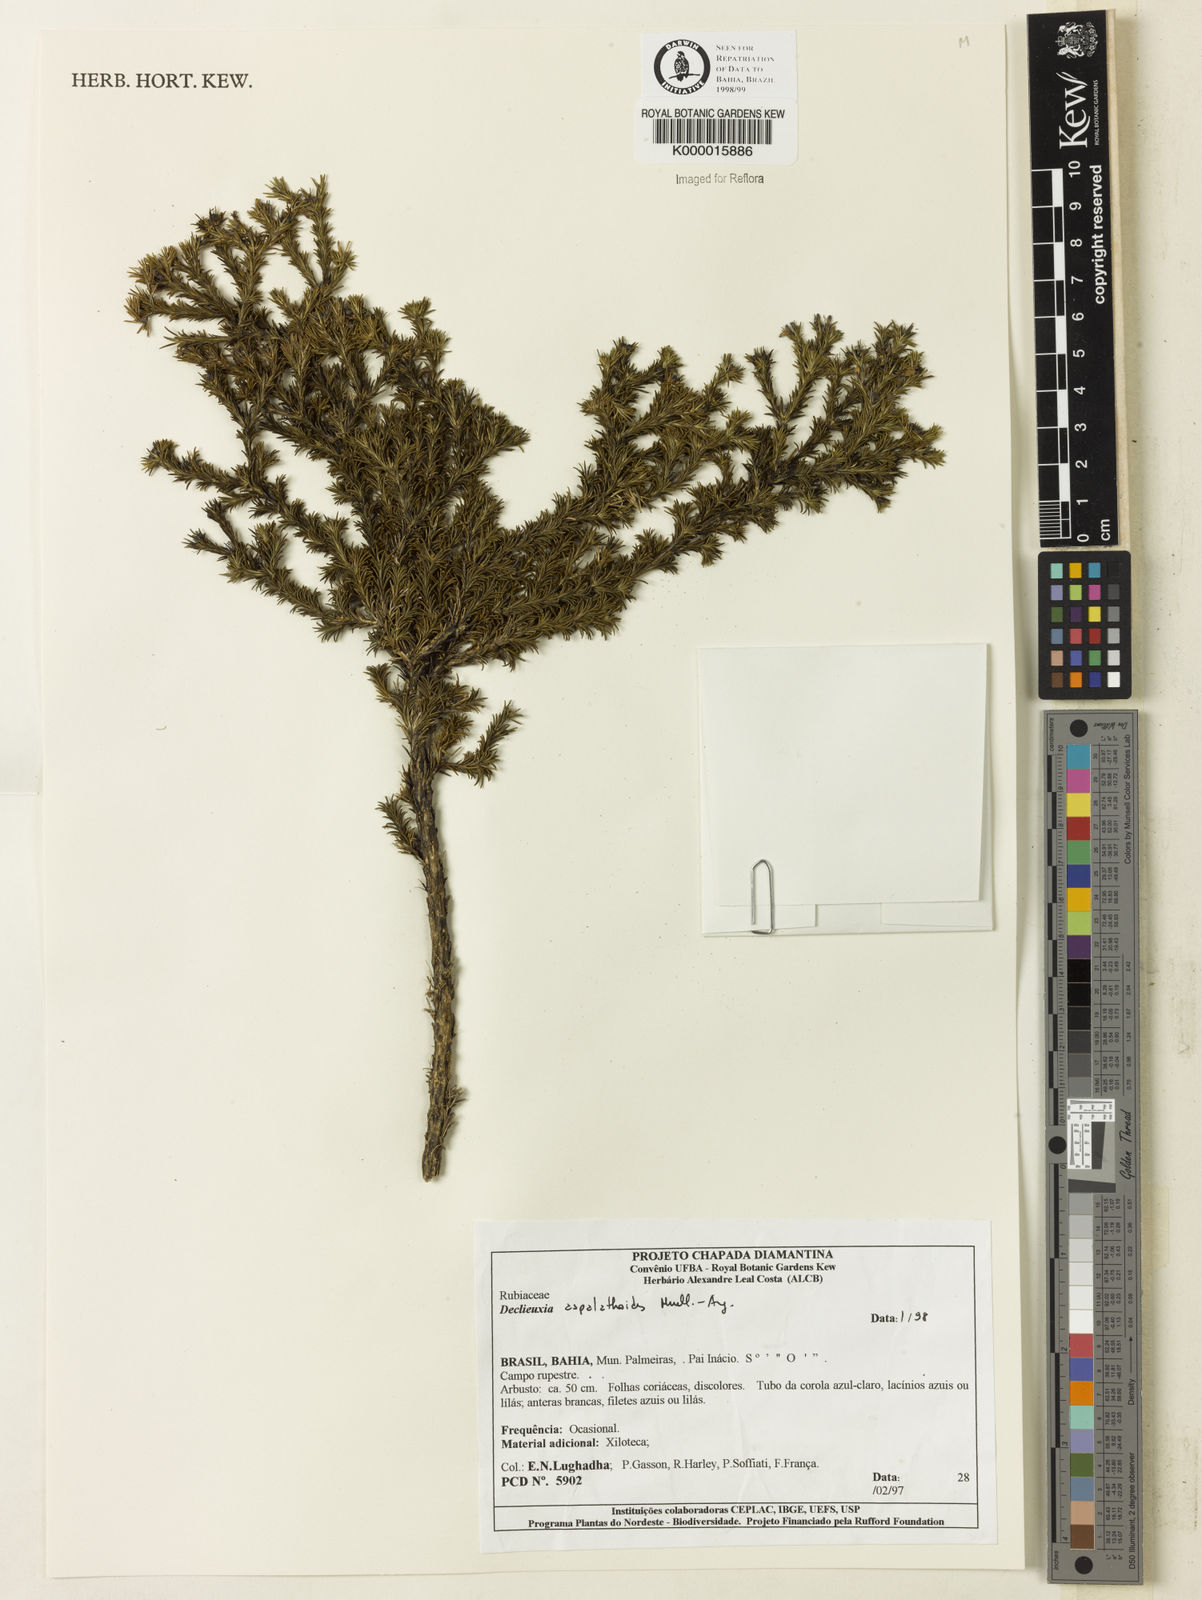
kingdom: Plantae
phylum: Tracheophyta
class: Magnoliopsida
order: Gentianales
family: Rubiaceae
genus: Declieuxia
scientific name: Declieuxia aspalathoides
